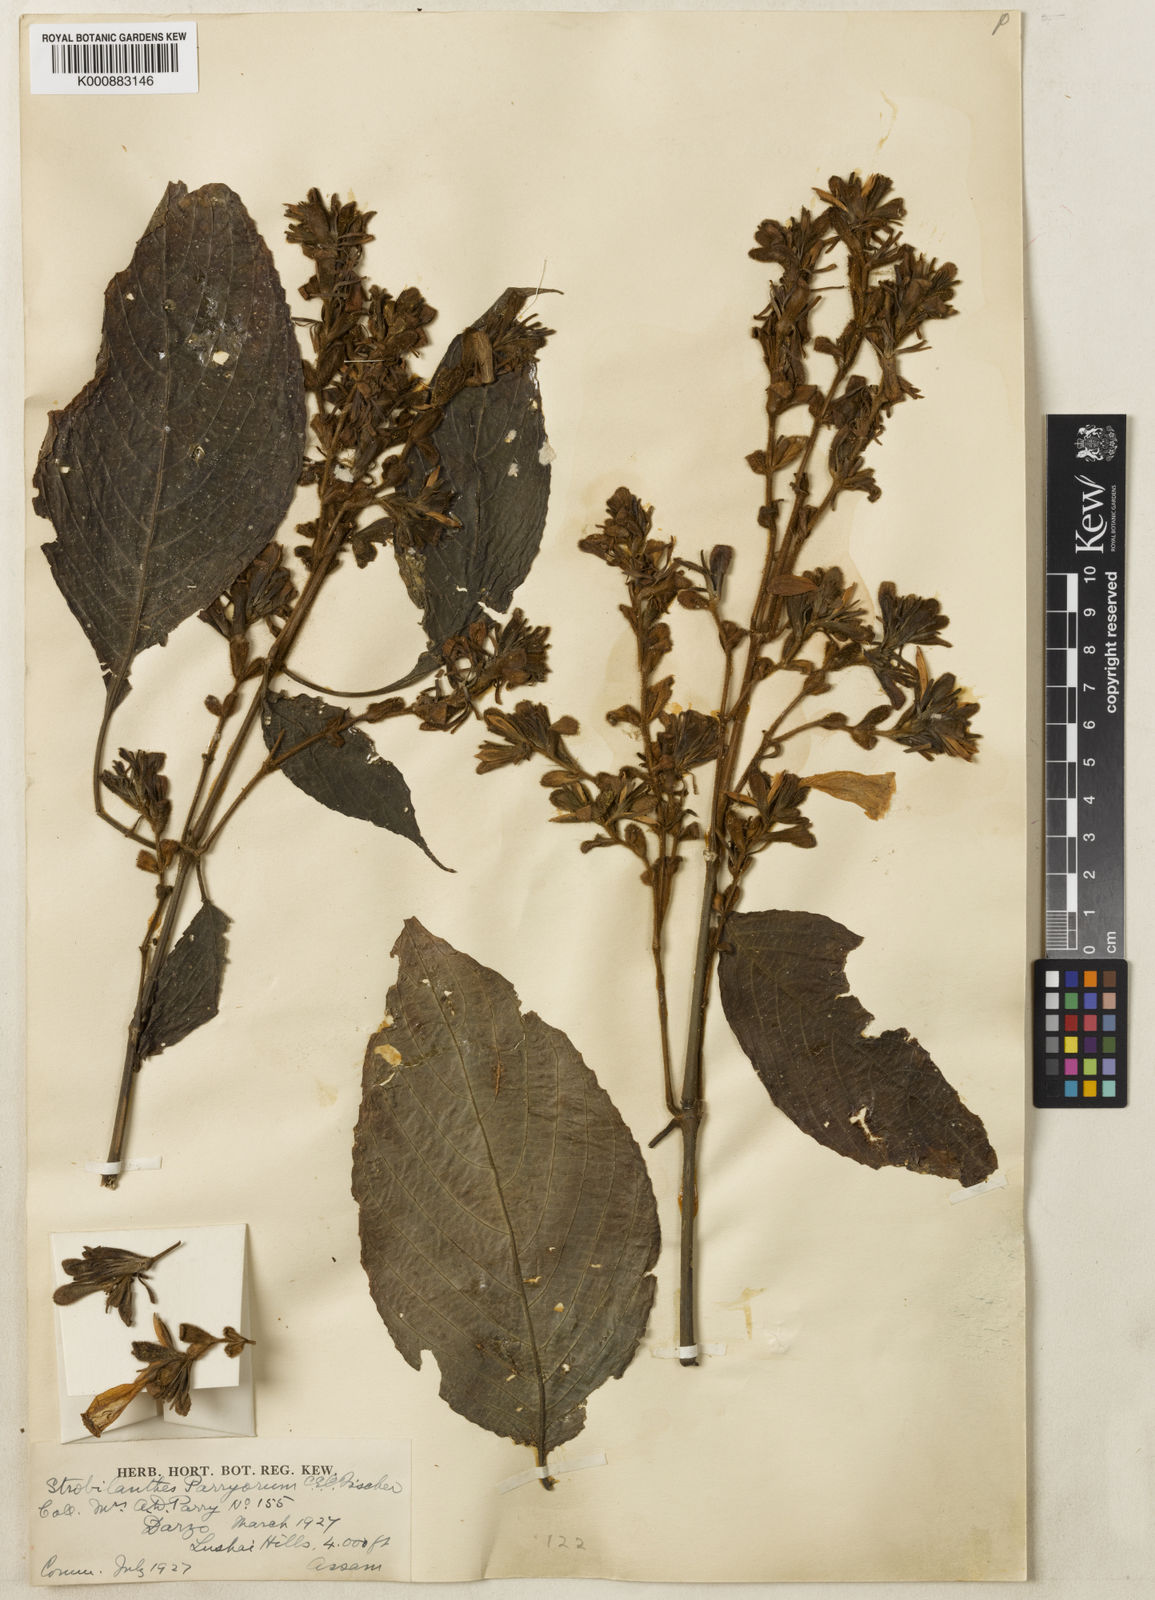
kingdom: Plantae
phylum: Tracheophyta
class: Magnoliopsida
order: Lamiales
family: Acanthaceae
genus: Strobilanthes
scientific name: Strobilanthes parryorum
